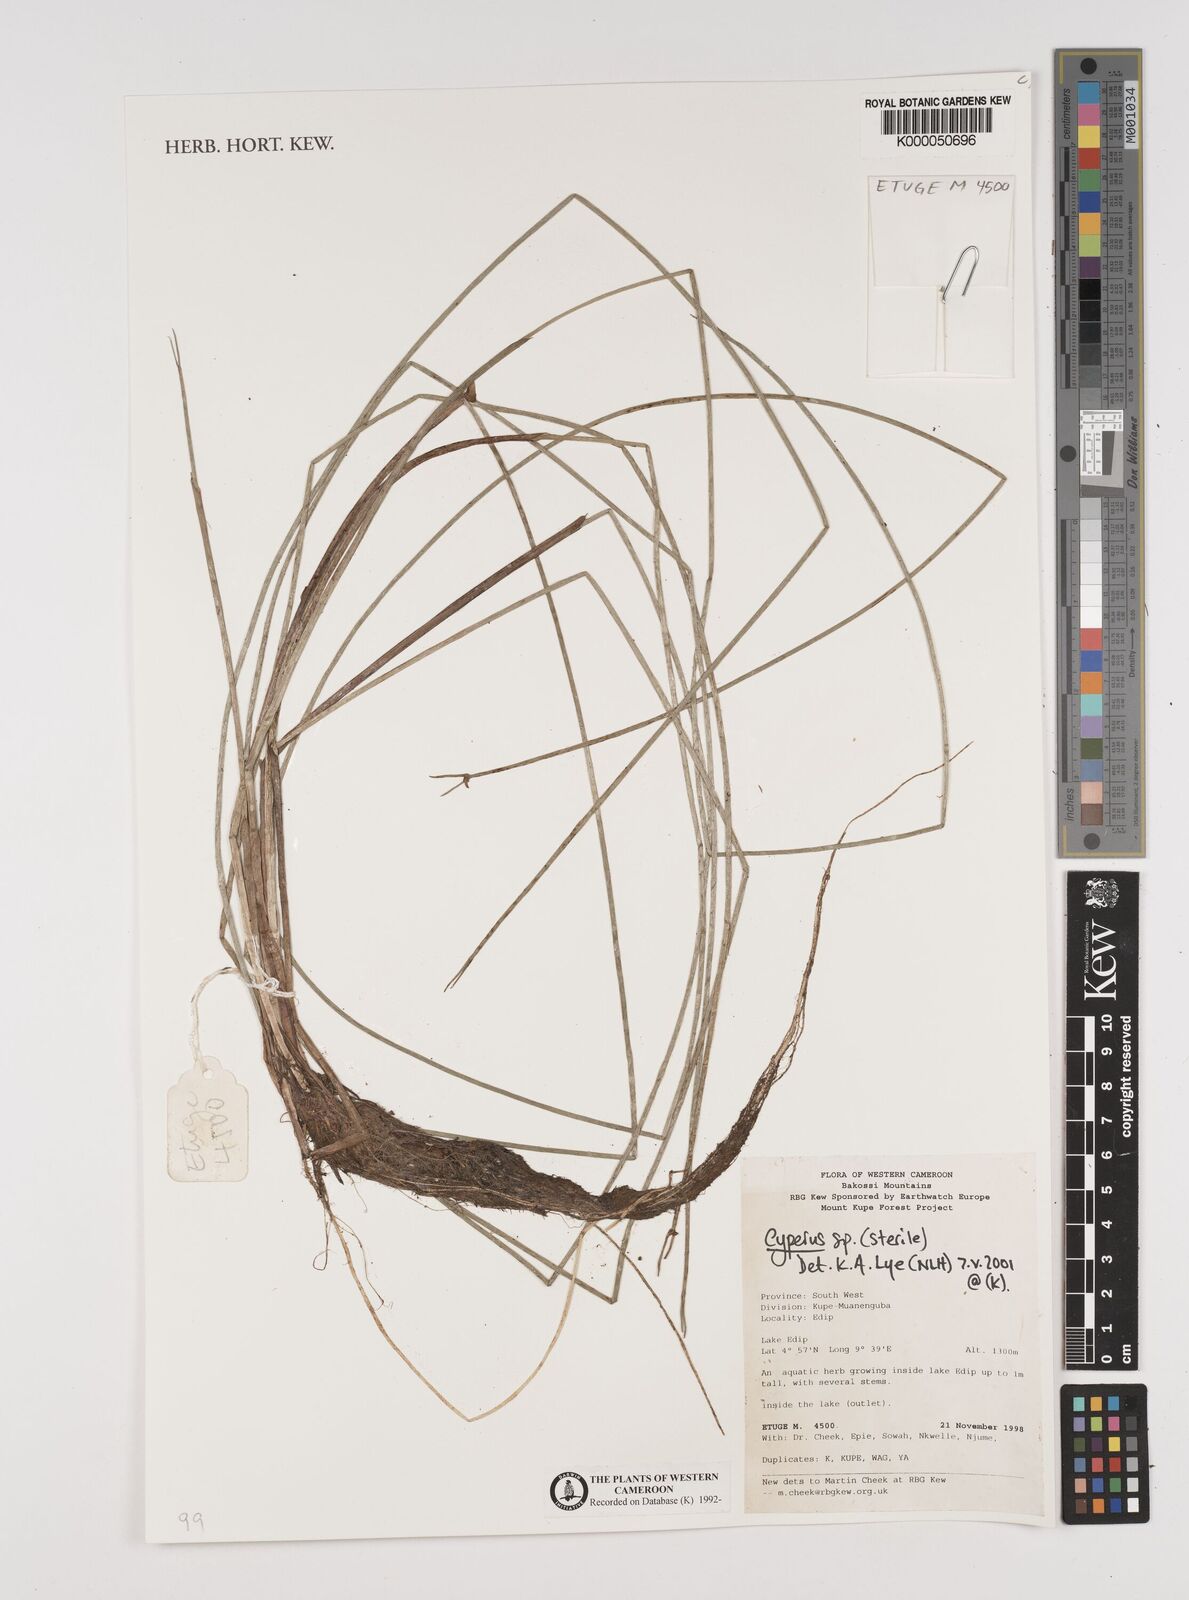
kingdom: Plantae
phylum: Tracheophyta
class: Liliopsida
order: Poales
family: Cyperaceae
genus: Cyperus
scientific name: Cyperus
